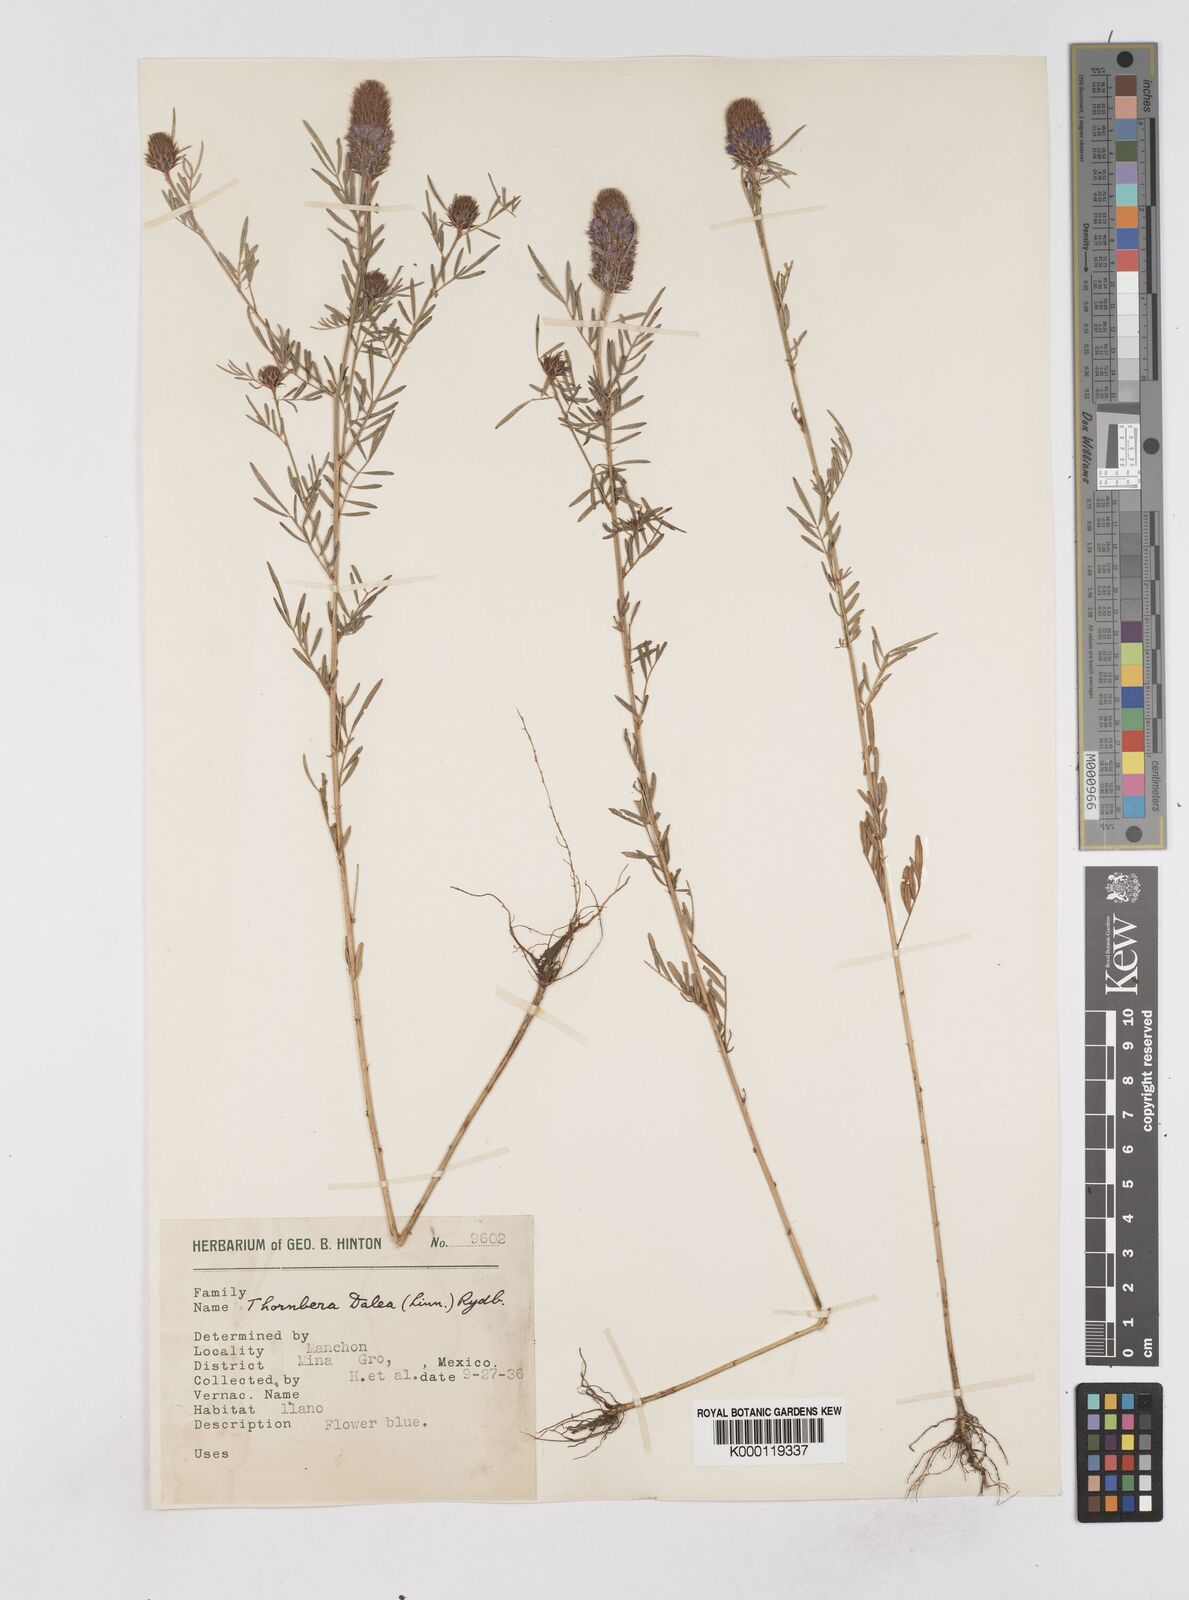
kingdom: Plantae
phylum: Tracheophyta
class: Magnoliopsida
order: Fabales
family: Fabaceae
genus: Dalea
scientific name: Dalea cliffortiana
